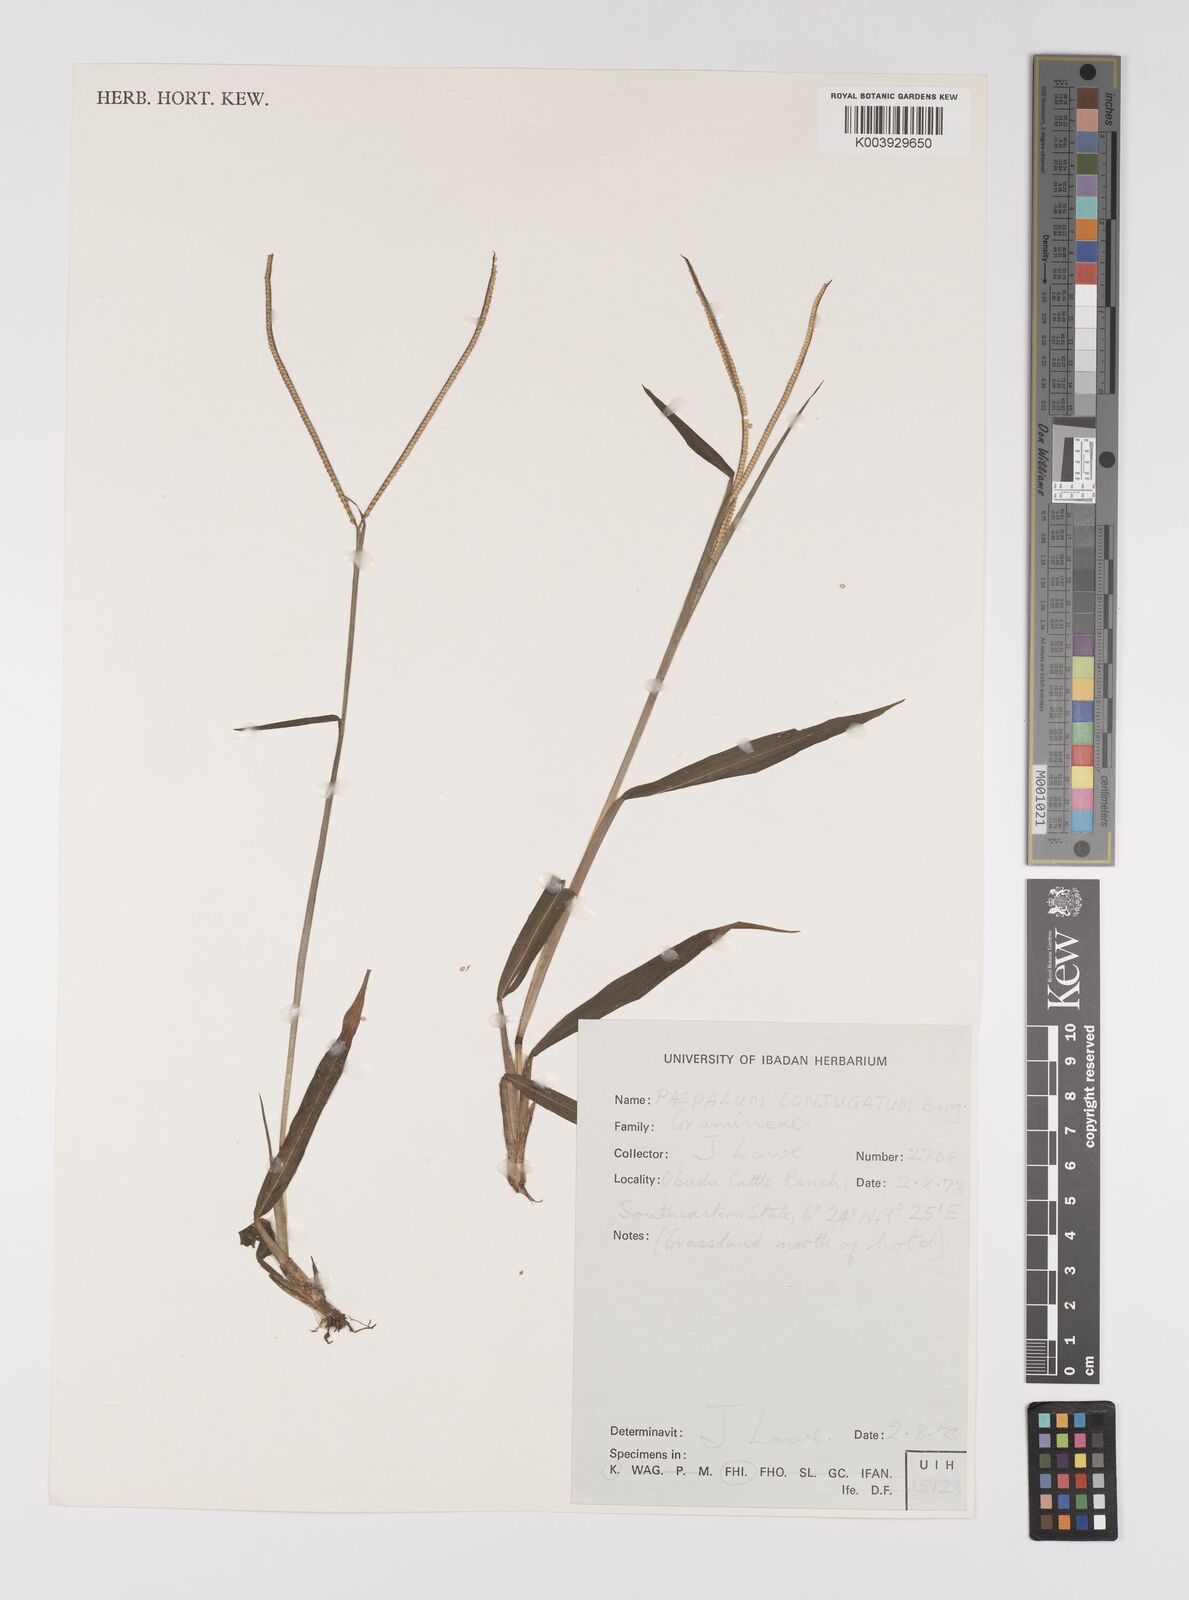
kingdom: Plantae
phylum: Tracheophyta
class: Liliopsida
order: Poales
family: Poaceae
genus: Paspalum
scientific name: Paspalum conjugatum
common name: Hilograss
